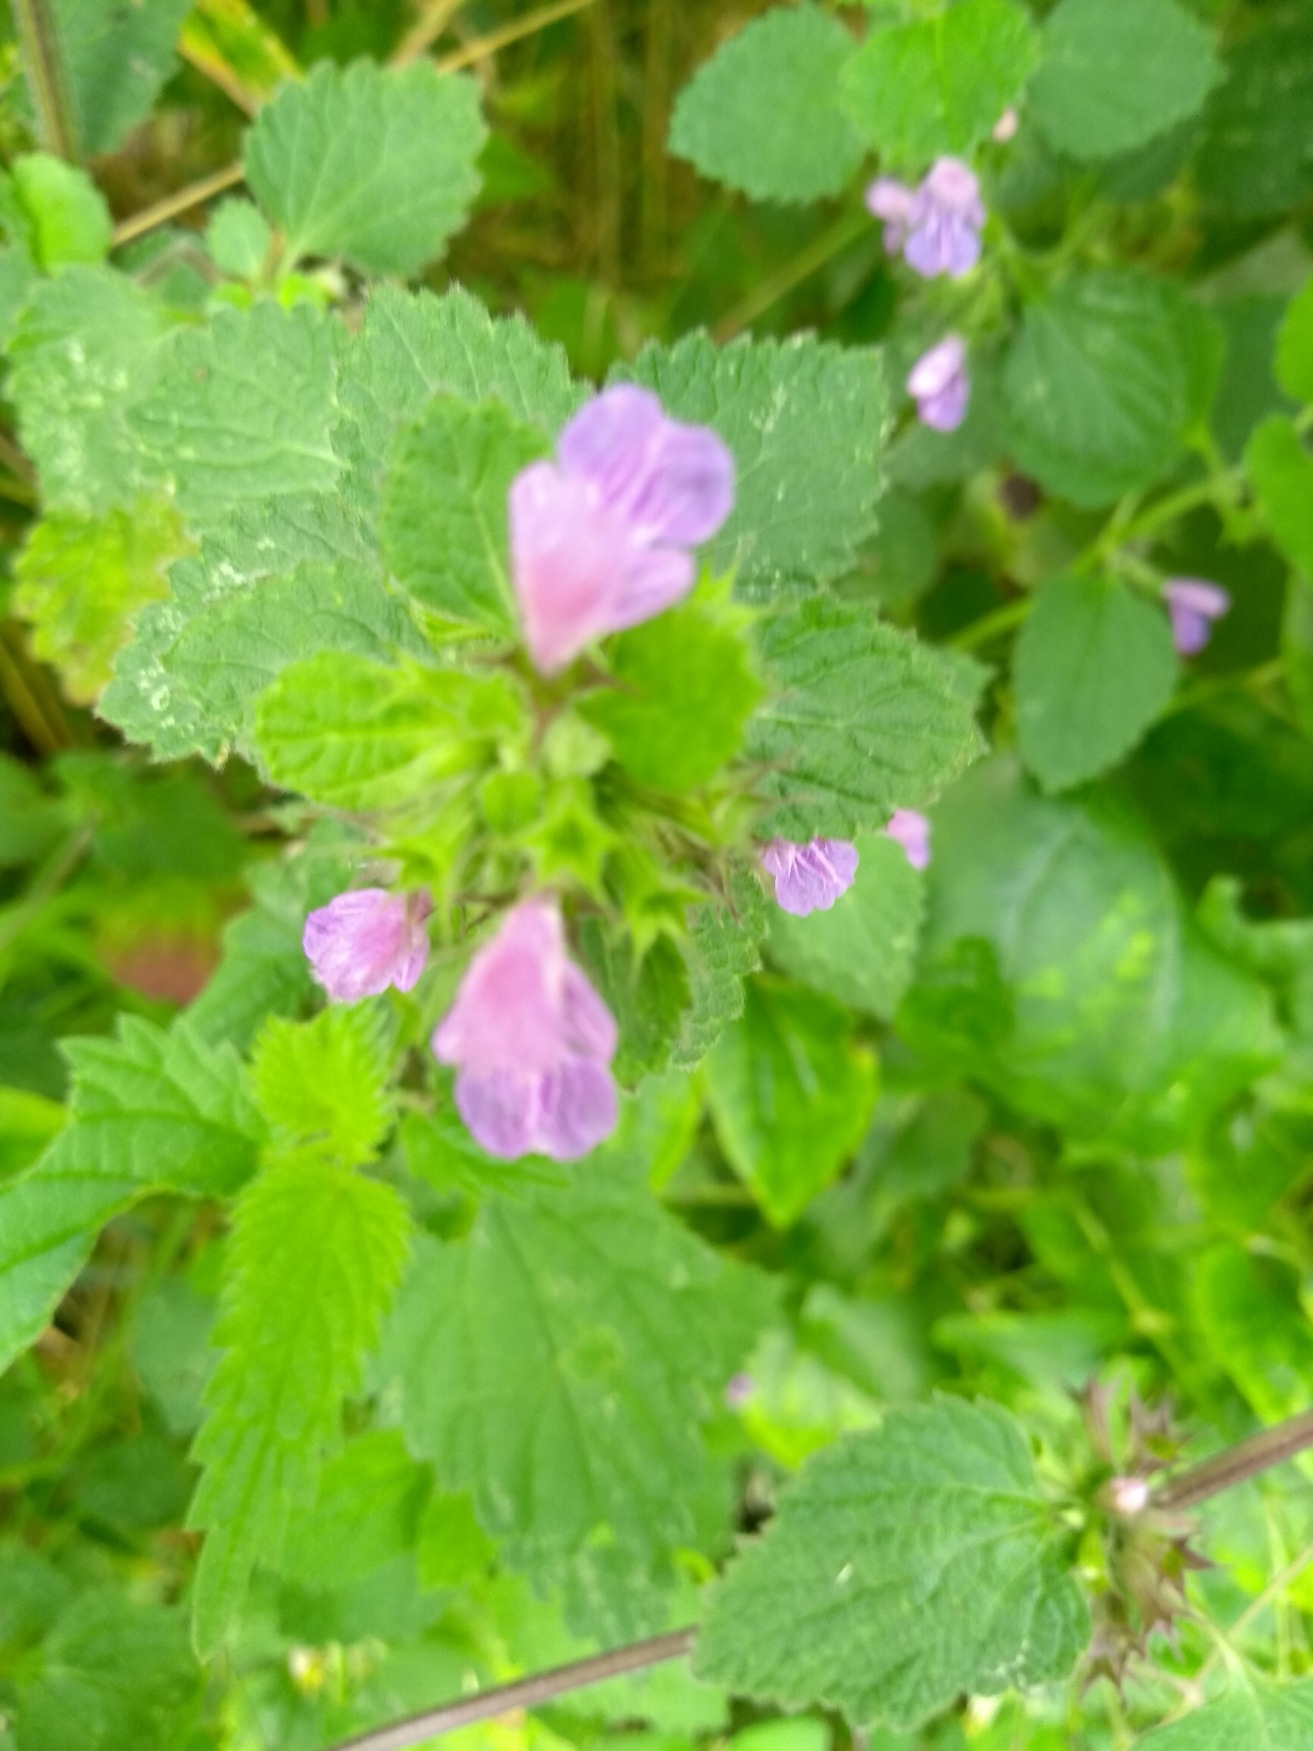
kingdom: Plantae
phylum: Tracheophyta
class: Magnoliopsida
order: Lamiales
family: Lamiaceae
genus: Ballota
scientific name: Ballota nigra
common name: Rød tandbæger
